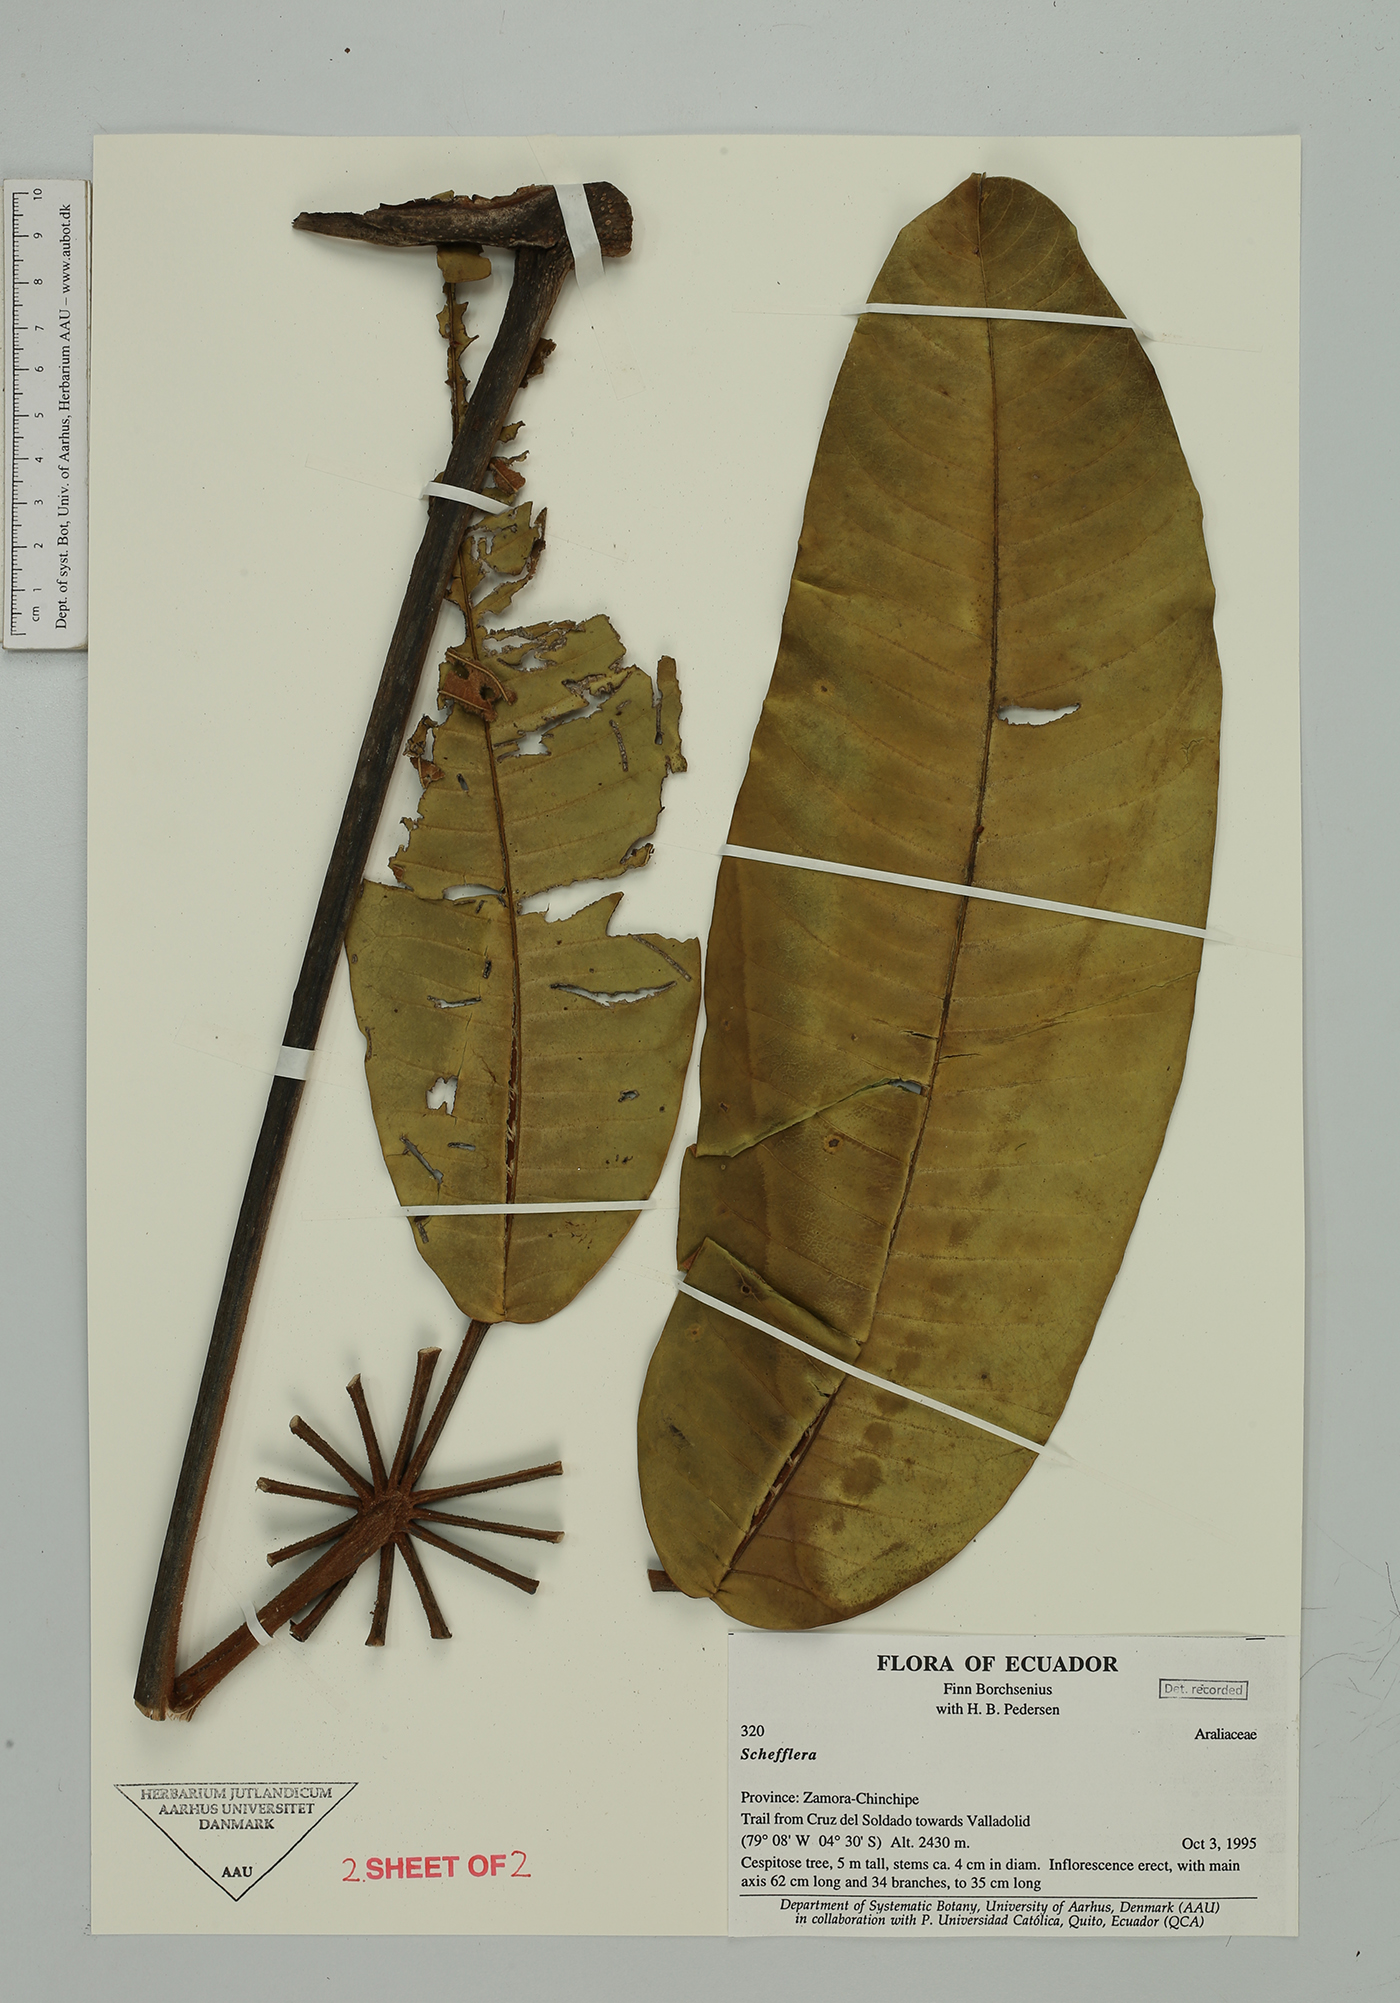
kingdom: Plantae
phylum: Tracheophyta
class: Magnoliopsida
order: Apiales
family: Araliaceae
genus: Sciodaphyllum
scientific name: Sciodaphyllum
